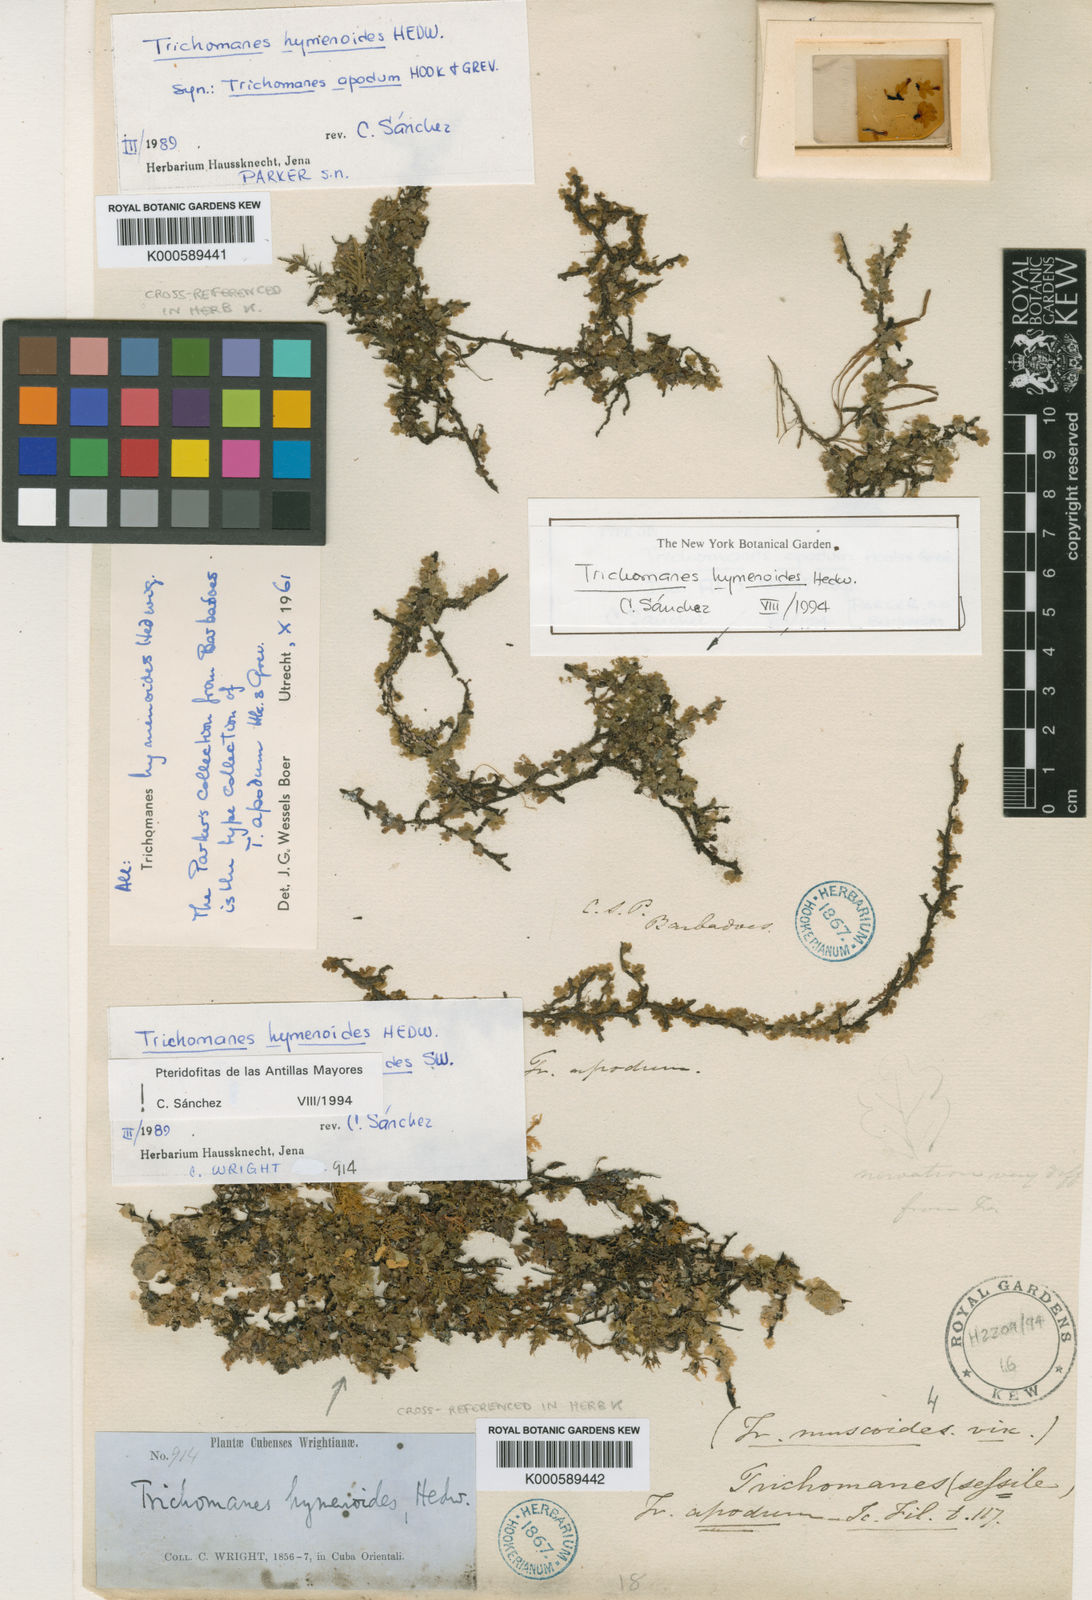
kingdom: Plantae
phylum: Tracheophyta
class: Polypodiopsida
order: Hymenophyllales
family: Hymenophyllaceae
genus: Didymoglossum
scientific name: Didymoglossum hymenoides
